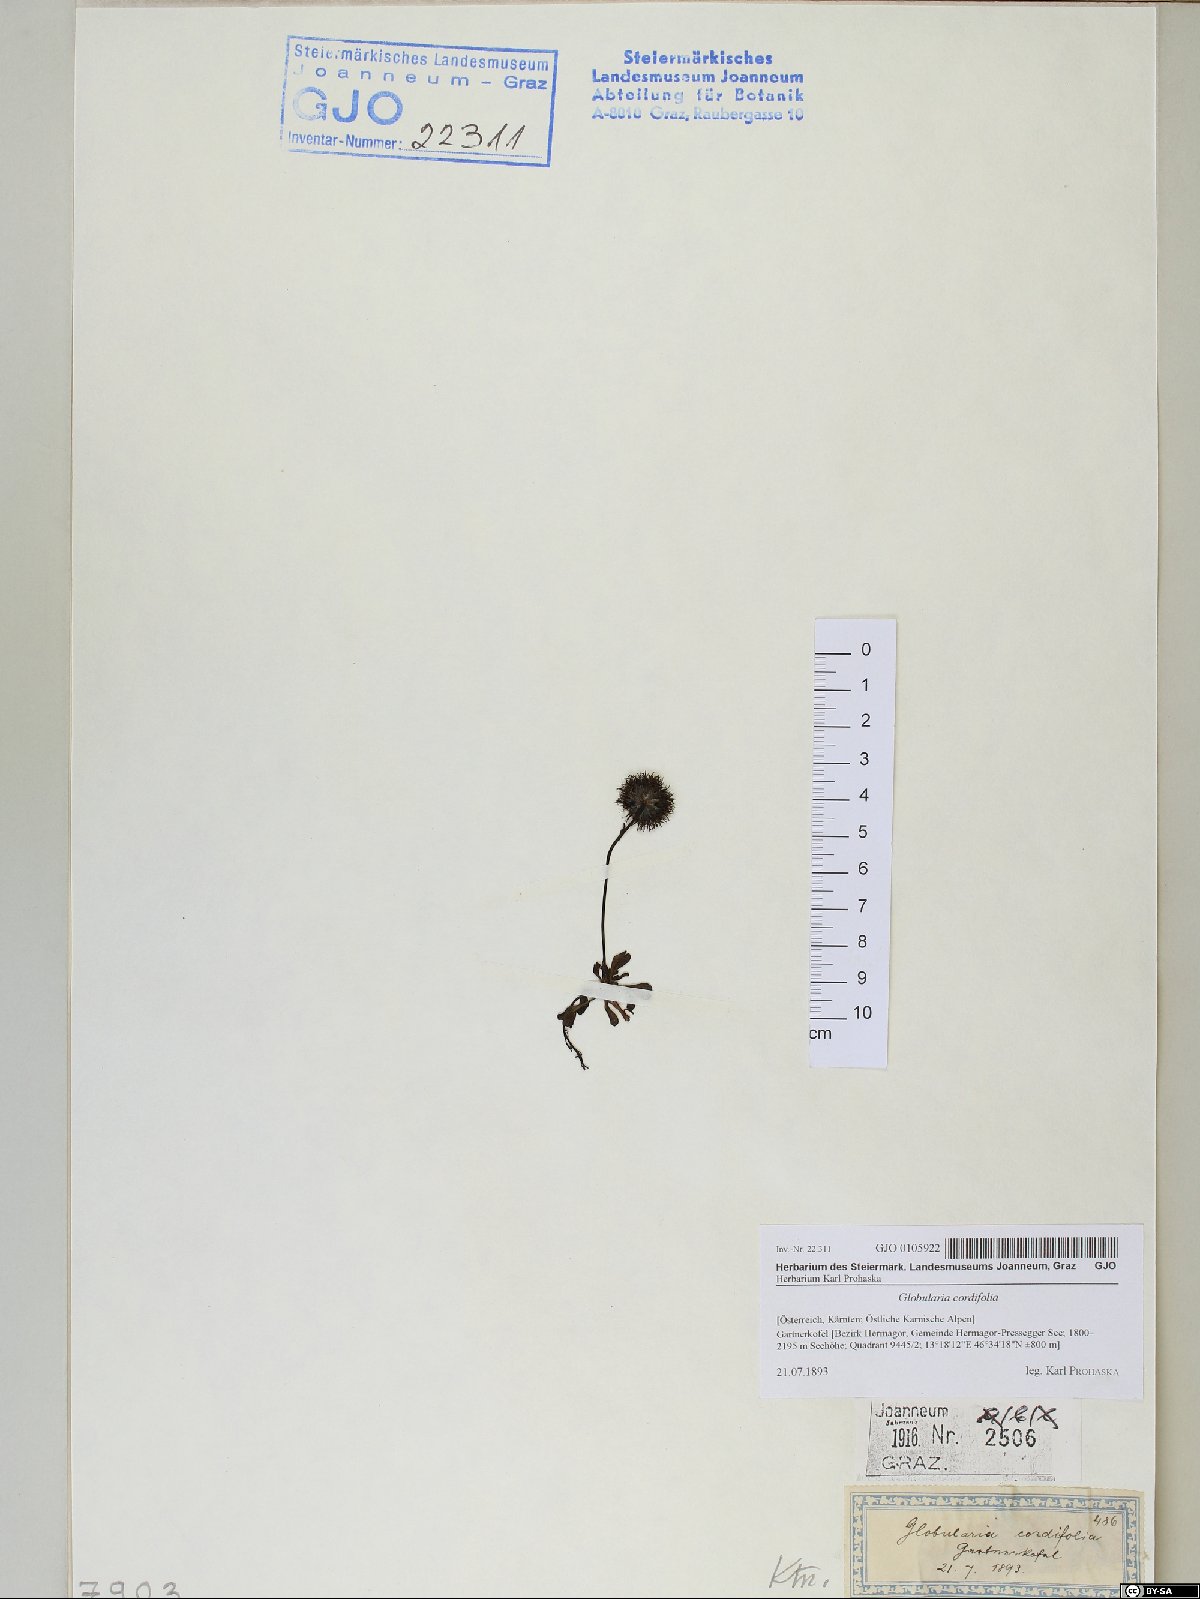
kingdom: Plantae
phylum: Tracheophyta
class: Magnoliopsida
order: Lamiales
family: Plantaginaceae
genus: Globularia
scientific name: Globularia cordifolia
